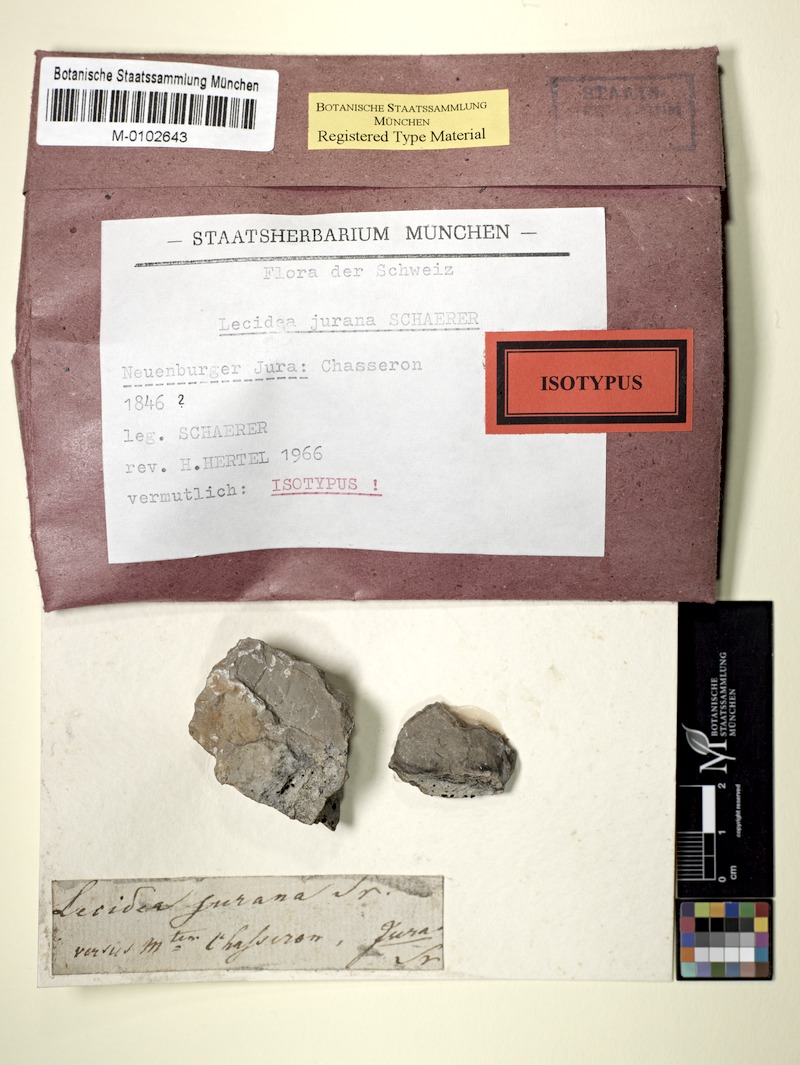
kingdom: Fungi
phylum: Ascomycota
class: Lecanoromycetes
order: Lecideales
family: Lecideaceae
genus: Farnoldia
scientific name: Farnoldia jurana
